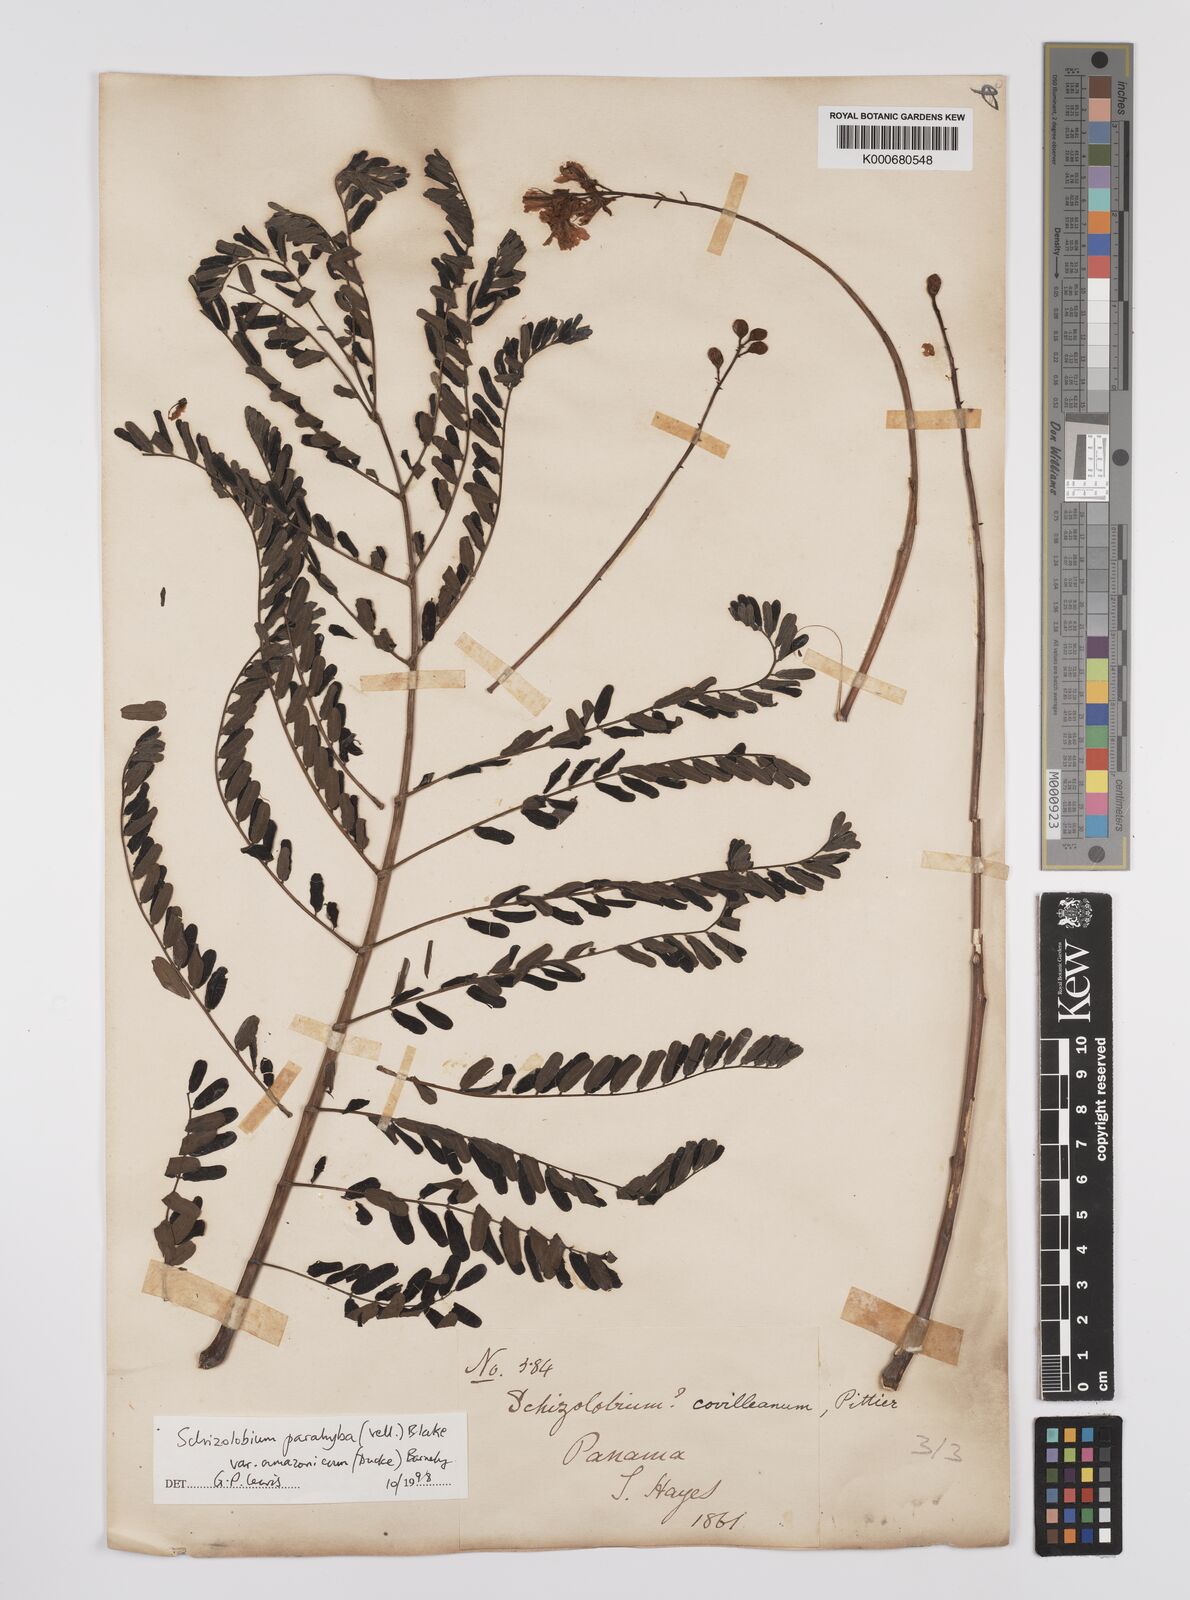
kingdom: Plantae
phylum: Tracheophyta
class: Magnoliopsida
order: Fabales
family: Fabaceae
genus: Schizolobium
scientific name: Schizolobium parahyba
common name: Brazilian firetree
